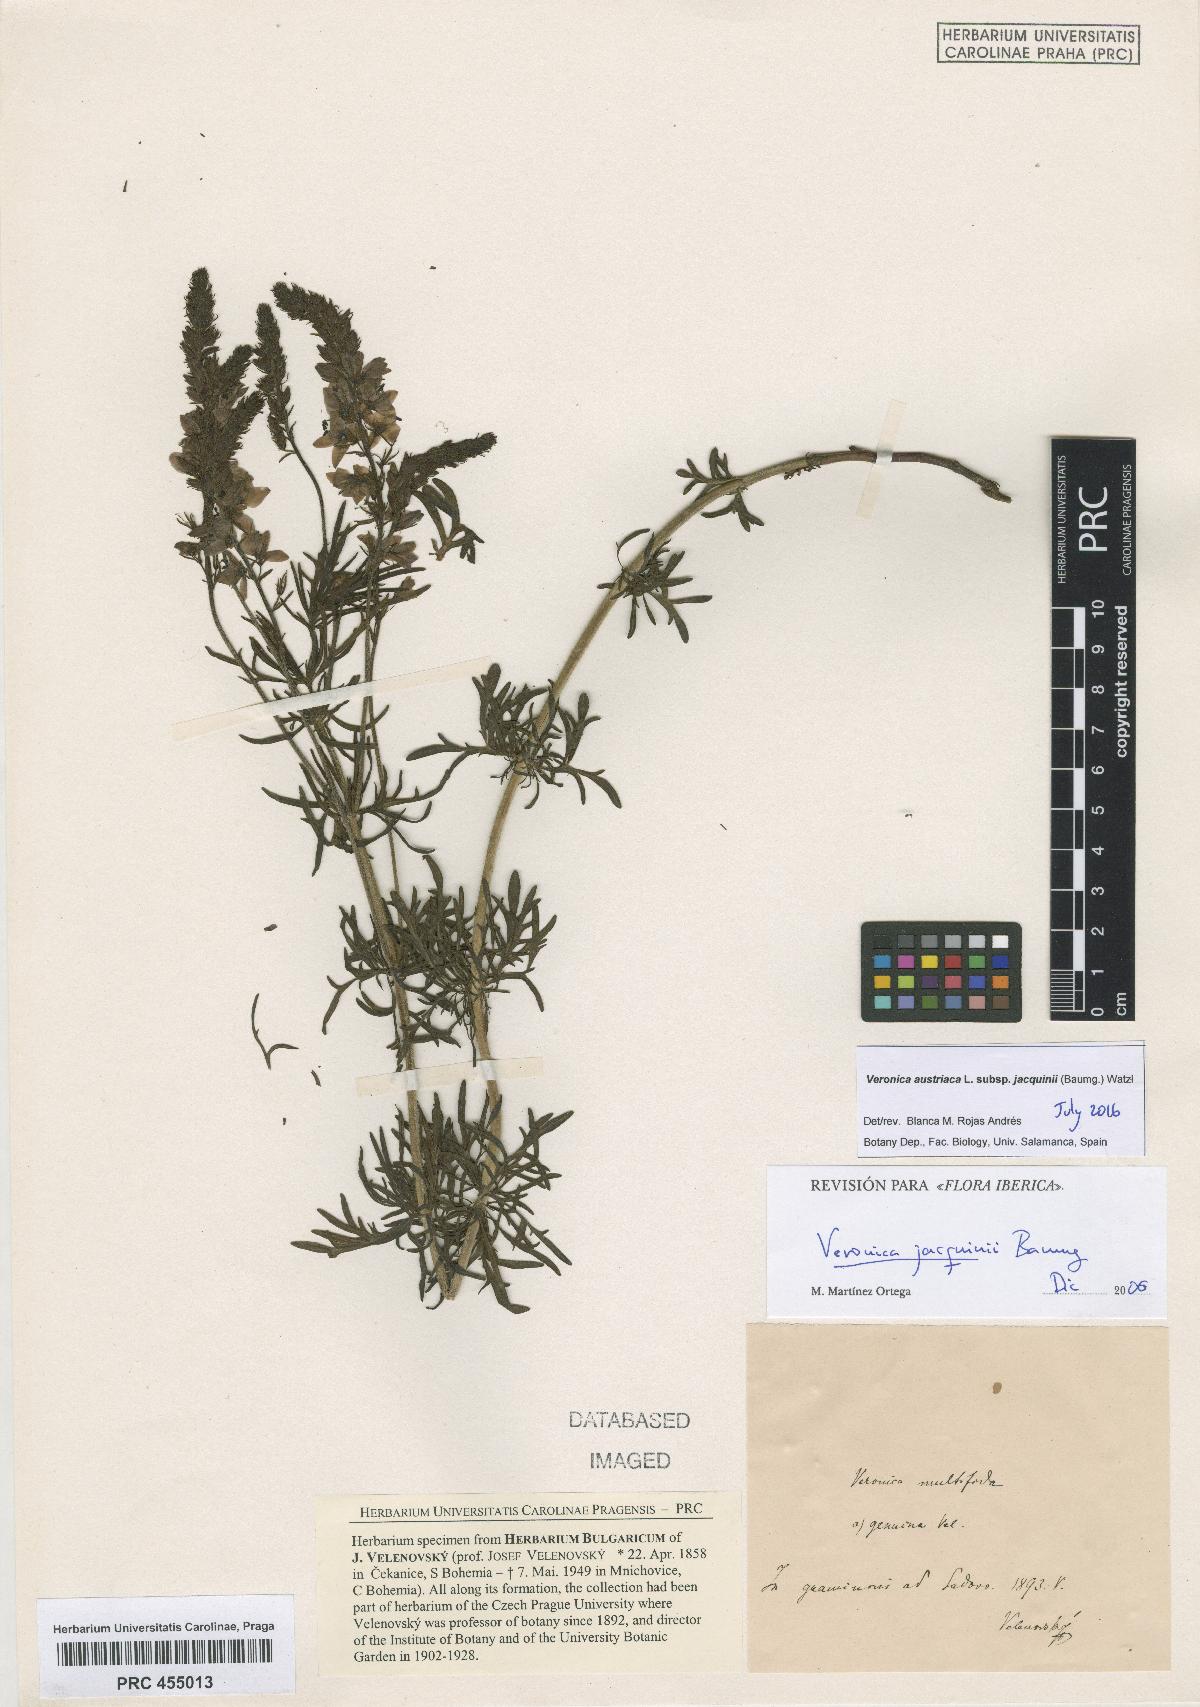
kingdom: Plantae
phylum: Tracheophyta
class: Magnoliopsida
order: Lamiales
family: Plantaginaceae
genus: Veronica
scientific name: Veronica austriaca
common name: Large speedwell
